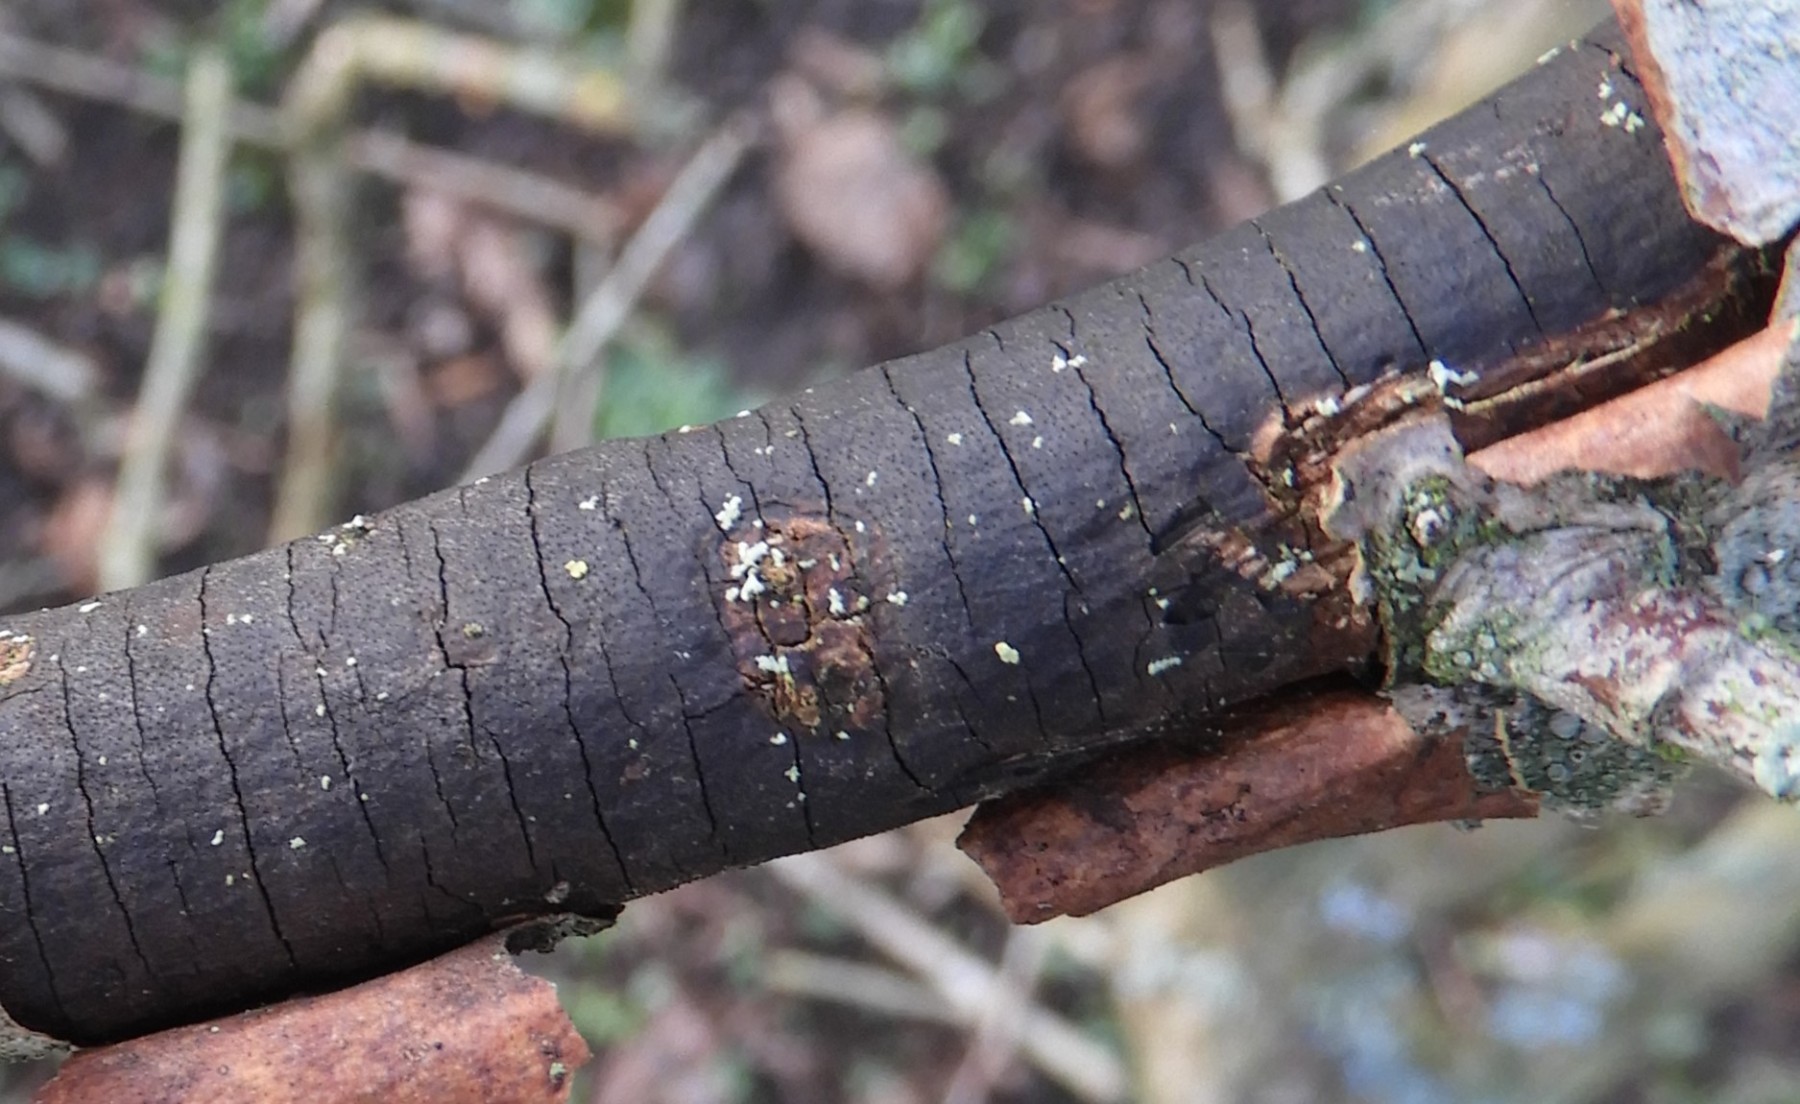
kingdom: Fungi
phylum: Ascomycota
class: Sordariomycetes
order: Xylariales
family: Diatrypaceae
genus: Diatrype
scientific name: Diatrype decorticata
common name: barksprænger-kulskorpe
